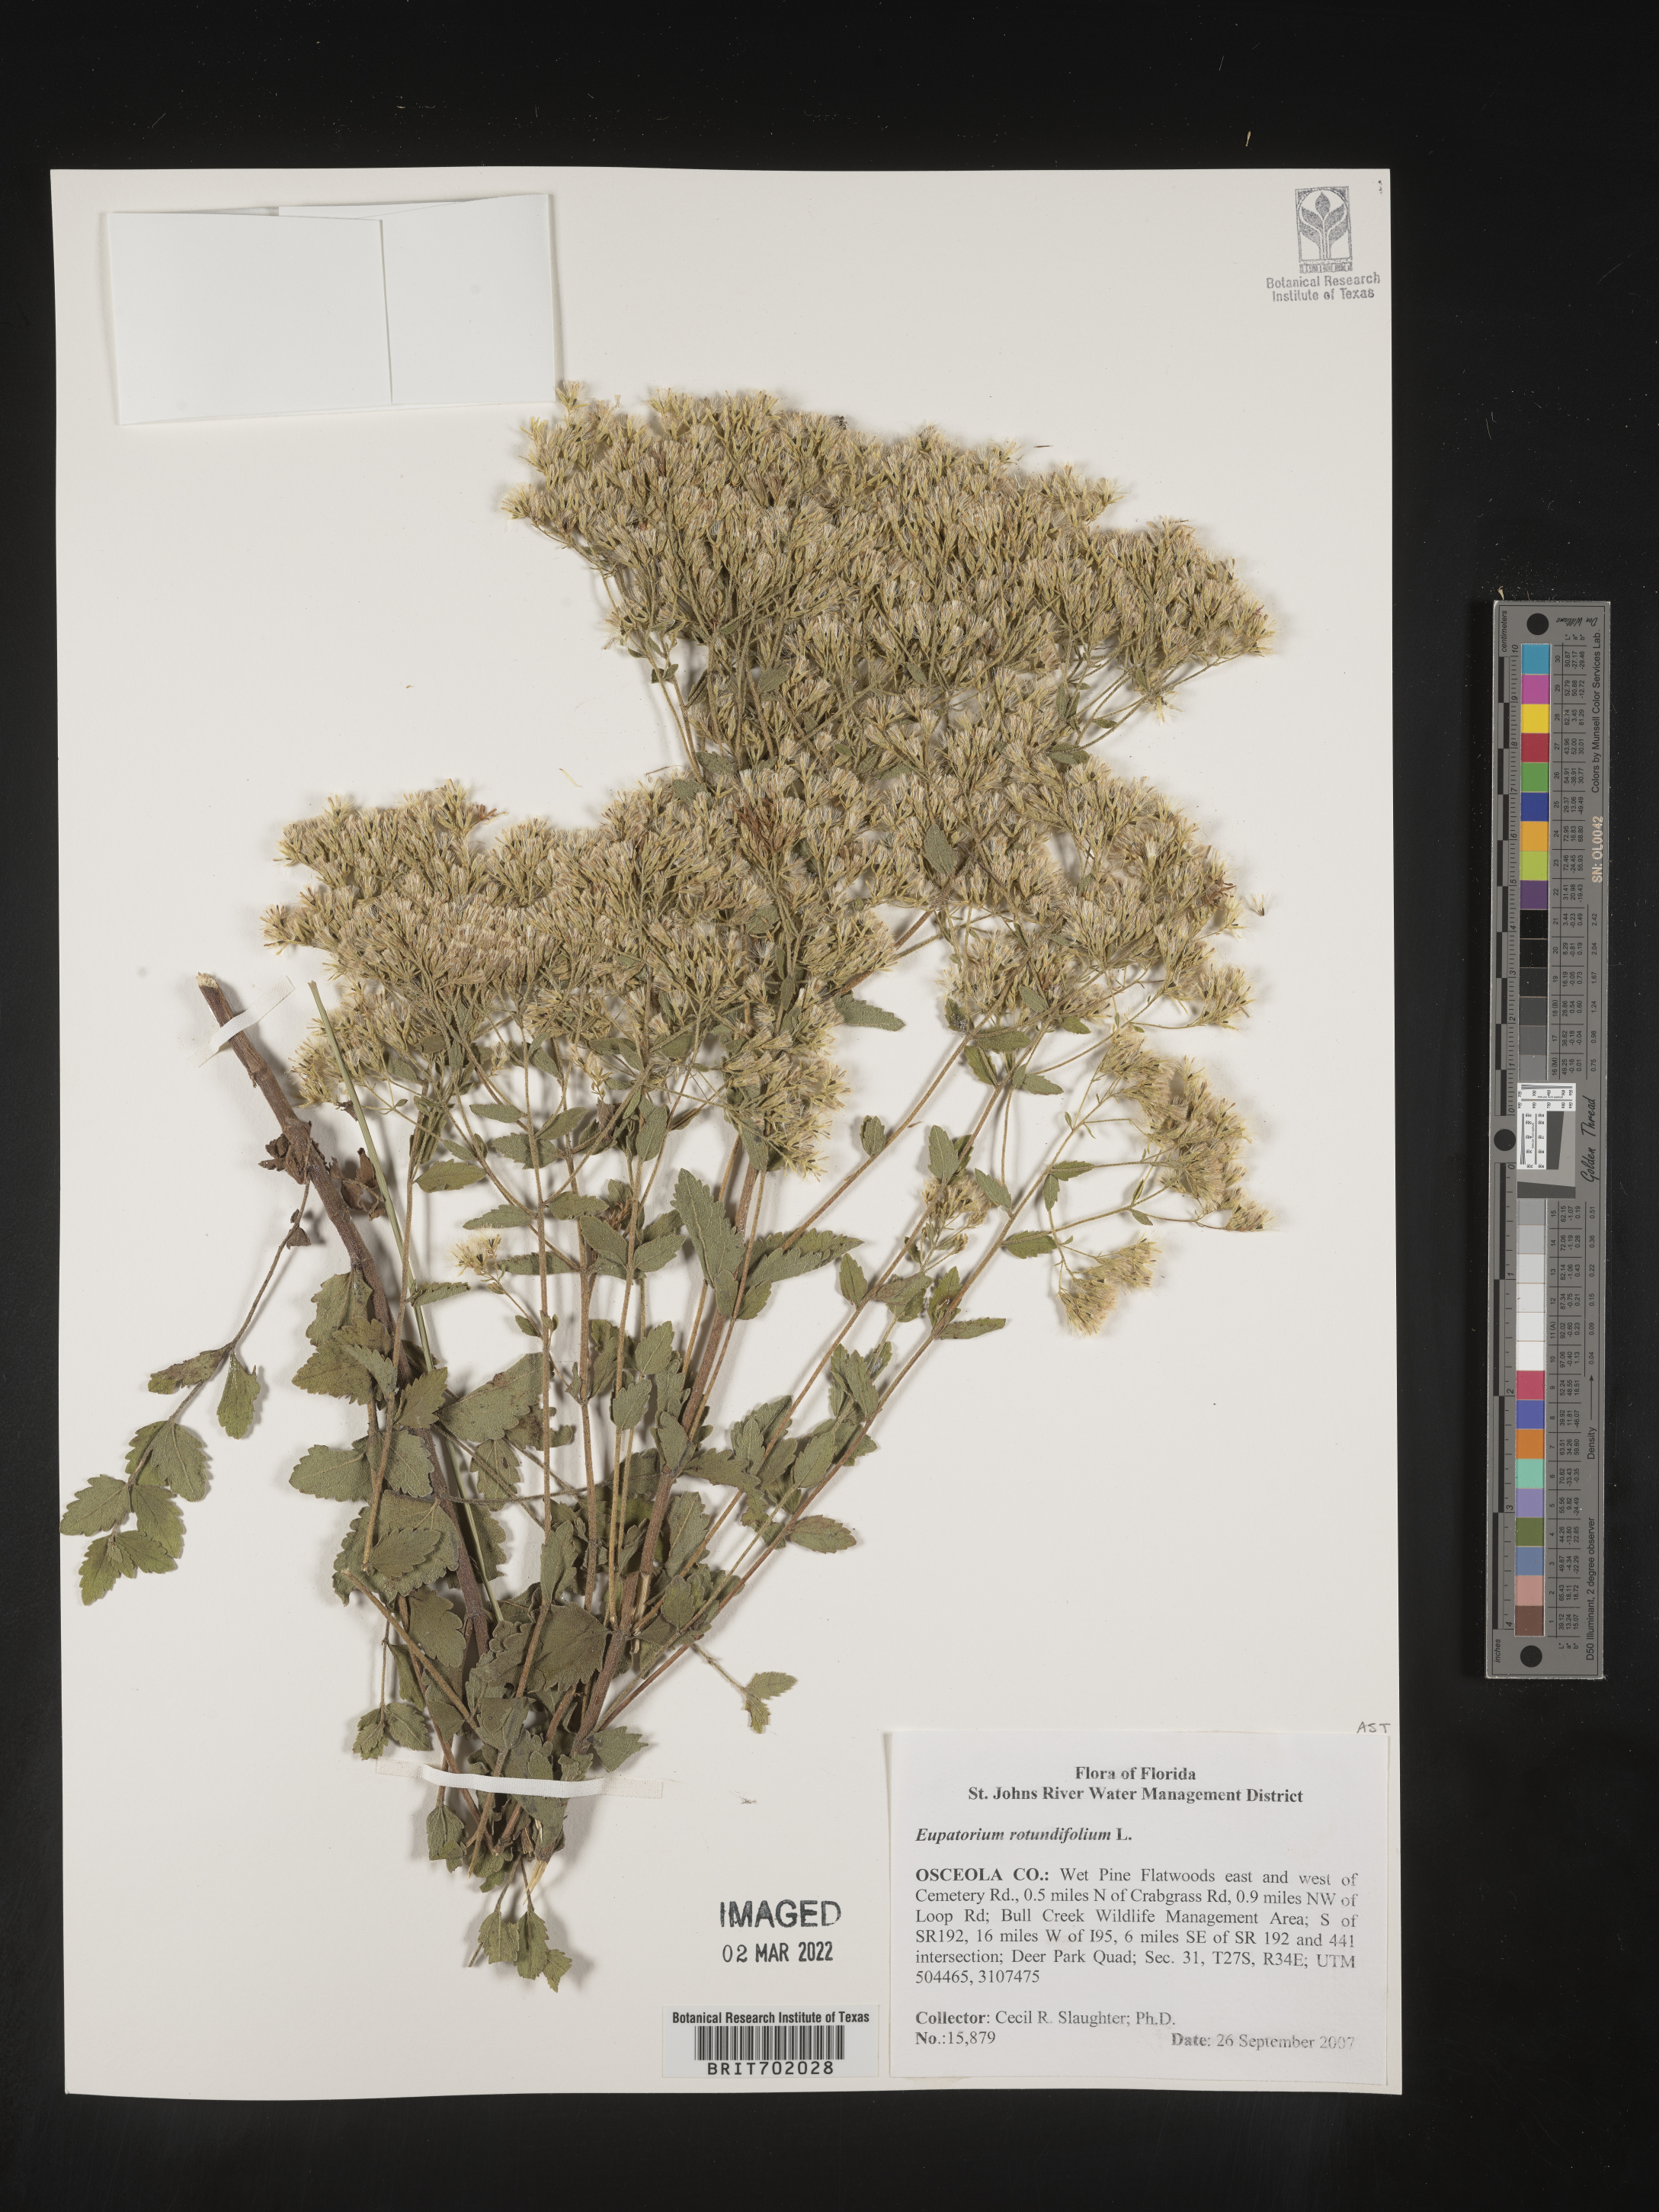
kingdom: Plantae
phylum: Tracheophyta
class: Magnoliopsida
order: Asterales
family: Asteraceae
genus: Eupatorium
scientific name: Eupatorium rotundifolium
